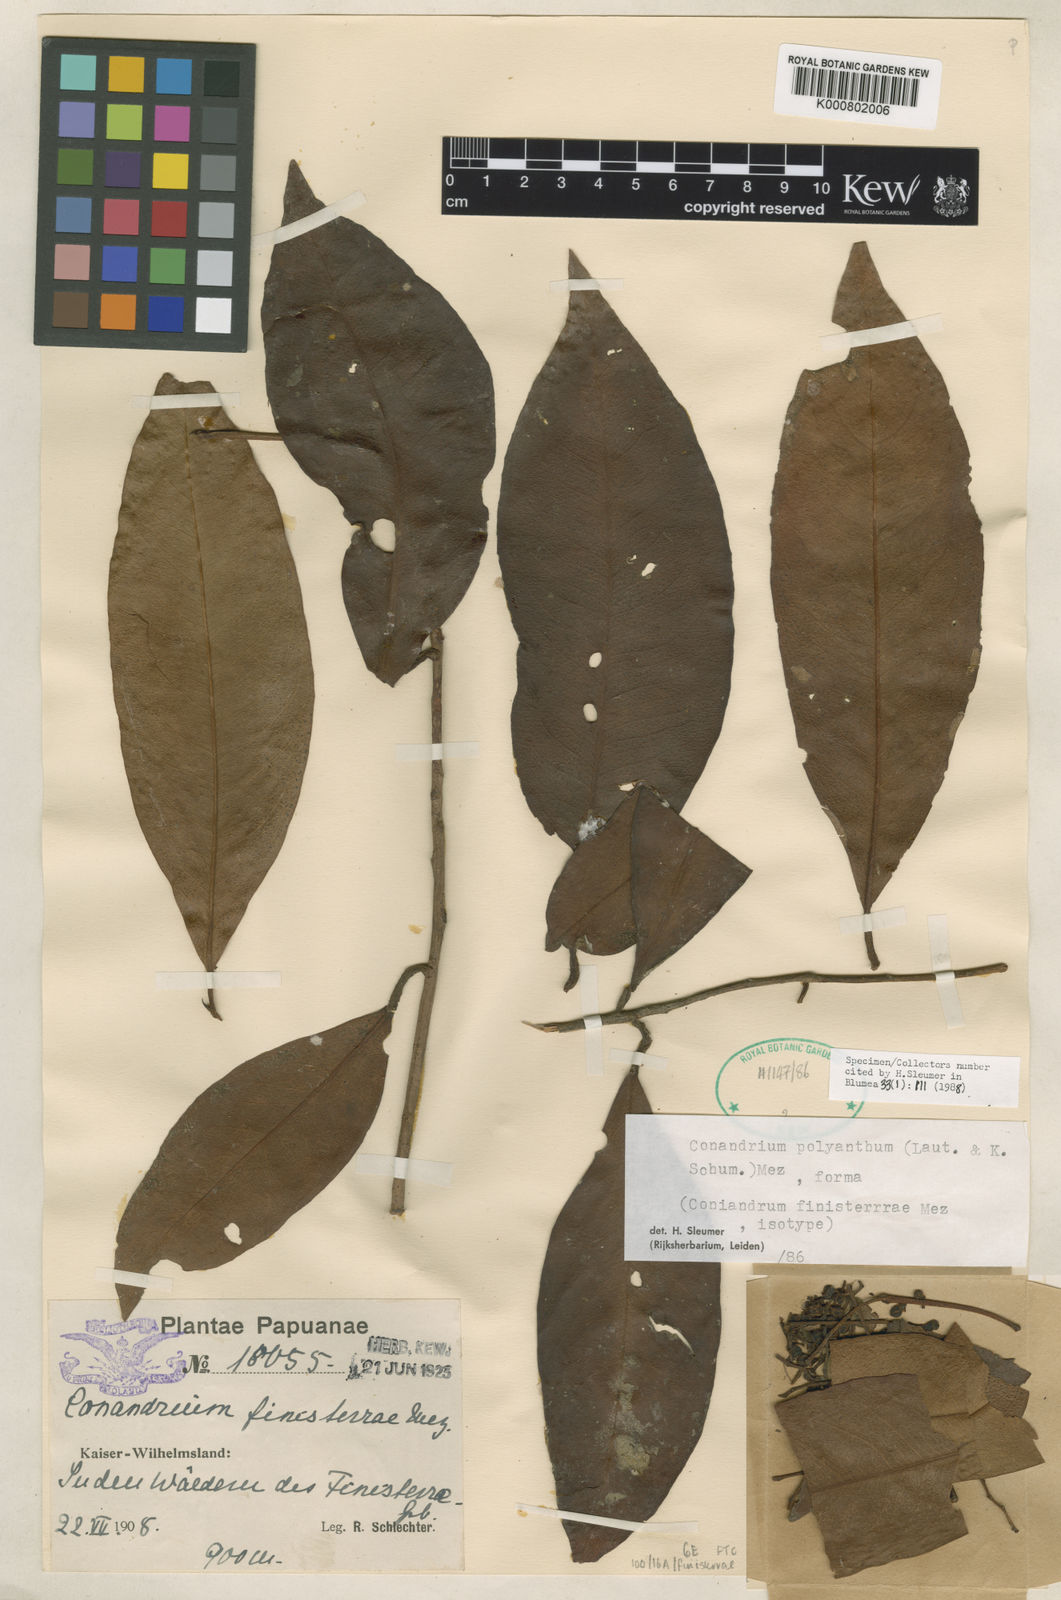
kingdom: Plantae
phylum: Tracheophyta
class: Magnoliopsida
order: Ericales
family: Primulaceae
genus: Conandrium
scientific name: Conandrium polyanthum
